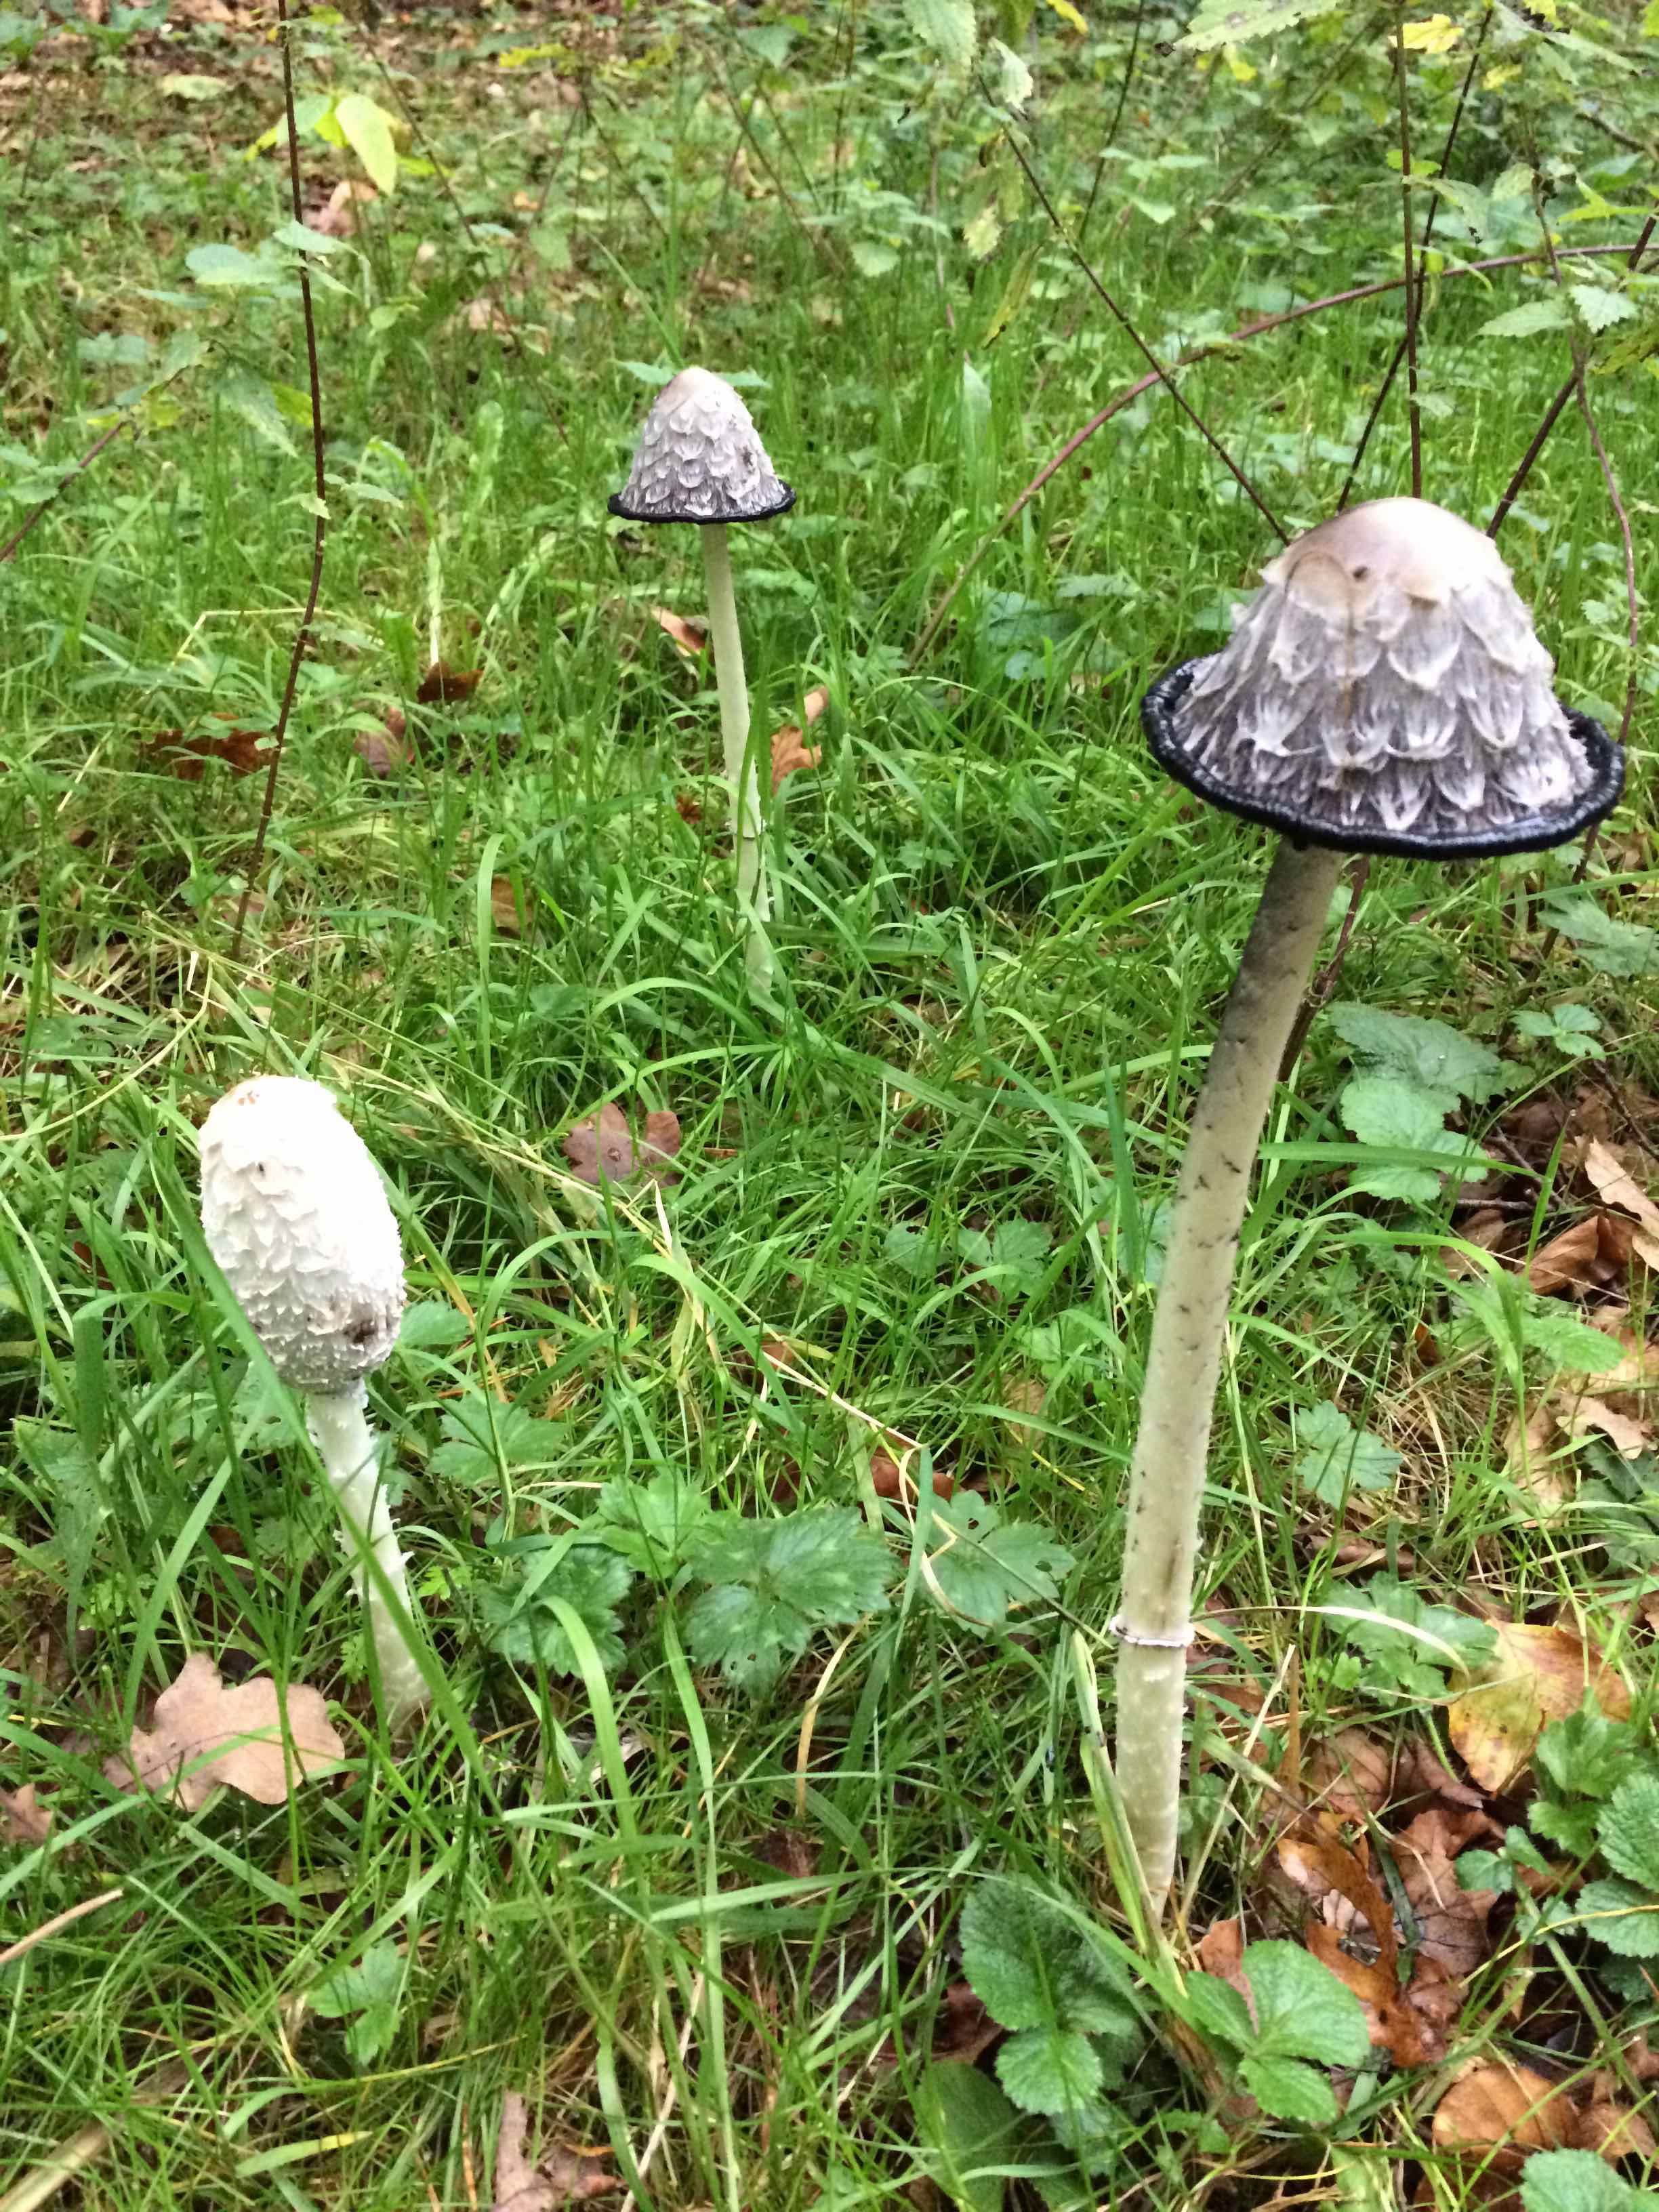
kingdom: Fungi
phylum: Basidiomycota
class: Agaricomycetes
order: Agaricales
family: Agaricaceae
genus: Coprinus
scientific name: Coprinus comatus
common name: stor parykhat
